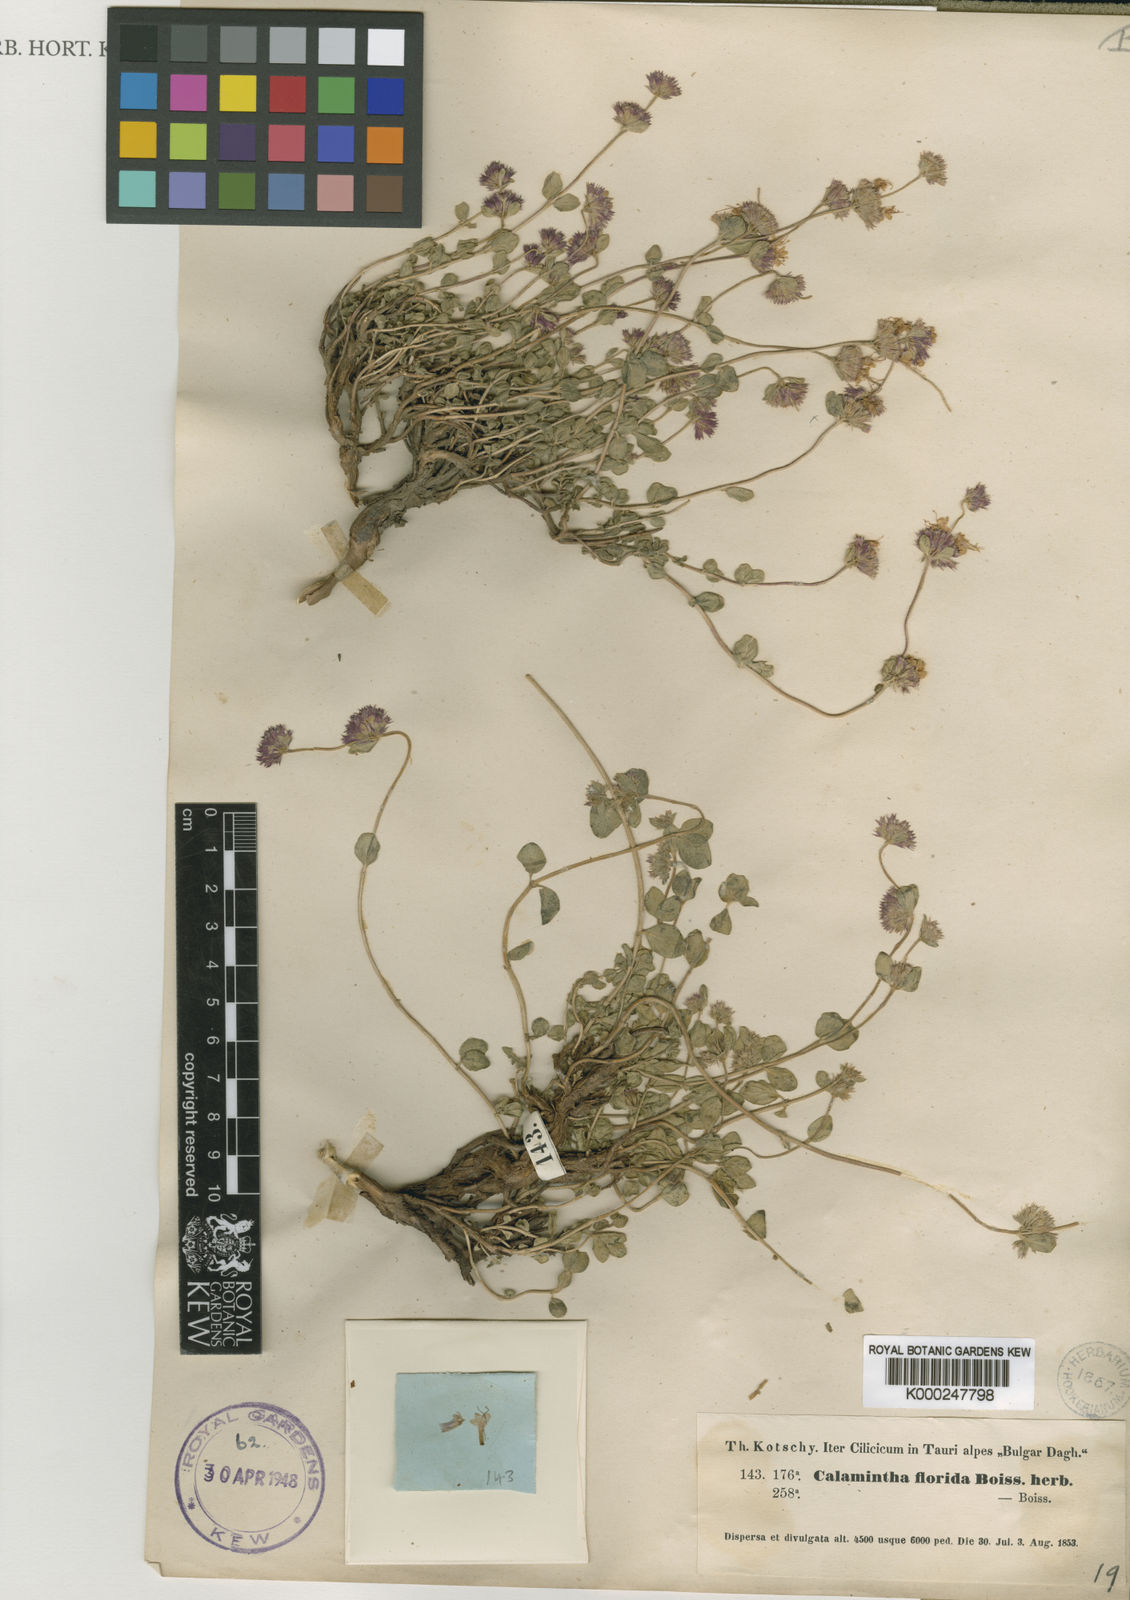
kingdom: Plantae
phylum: Tracheophyta
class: Magnoliopsida
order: Lamiales
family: Lamiaceae
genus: Cyclotrichium
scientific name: Cyclotrichium origanifolium
